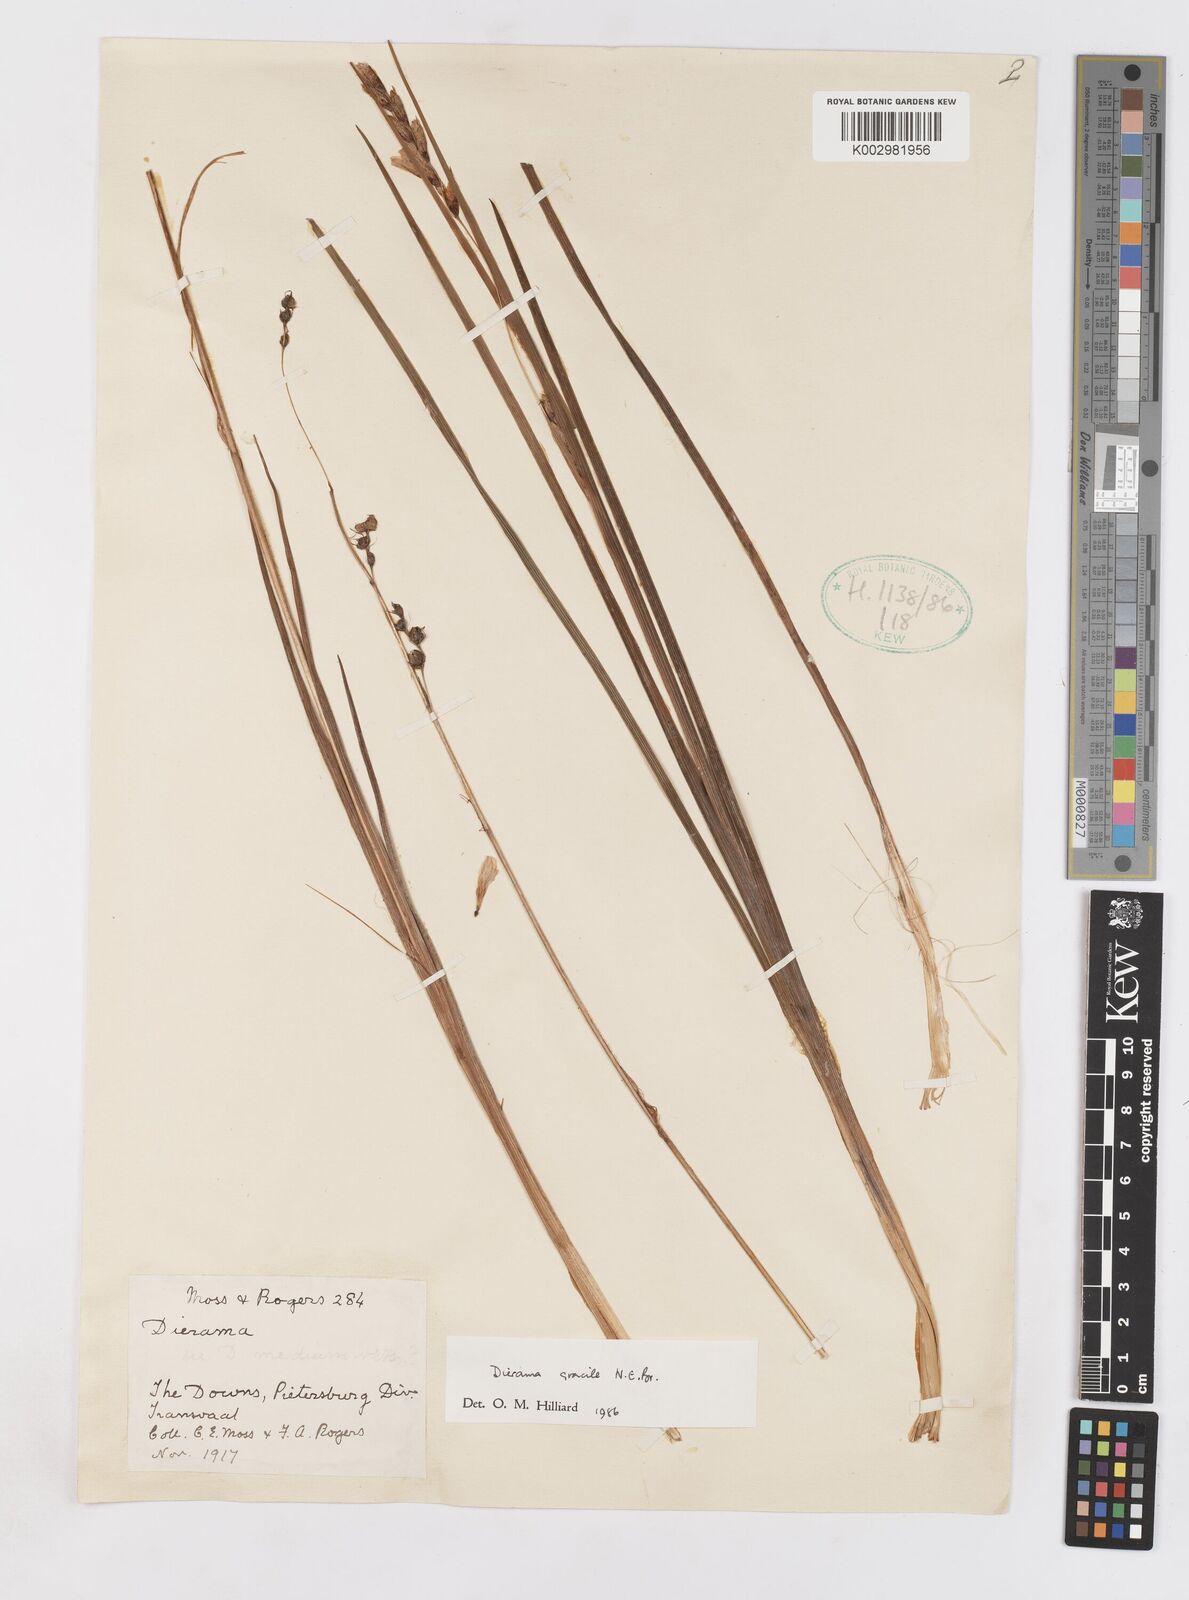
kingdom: Plantae
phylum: Tracheophyta
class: Liliopsida
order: Asparagales
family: Iridaceae
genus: Dierama
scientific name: Dierama gracile
